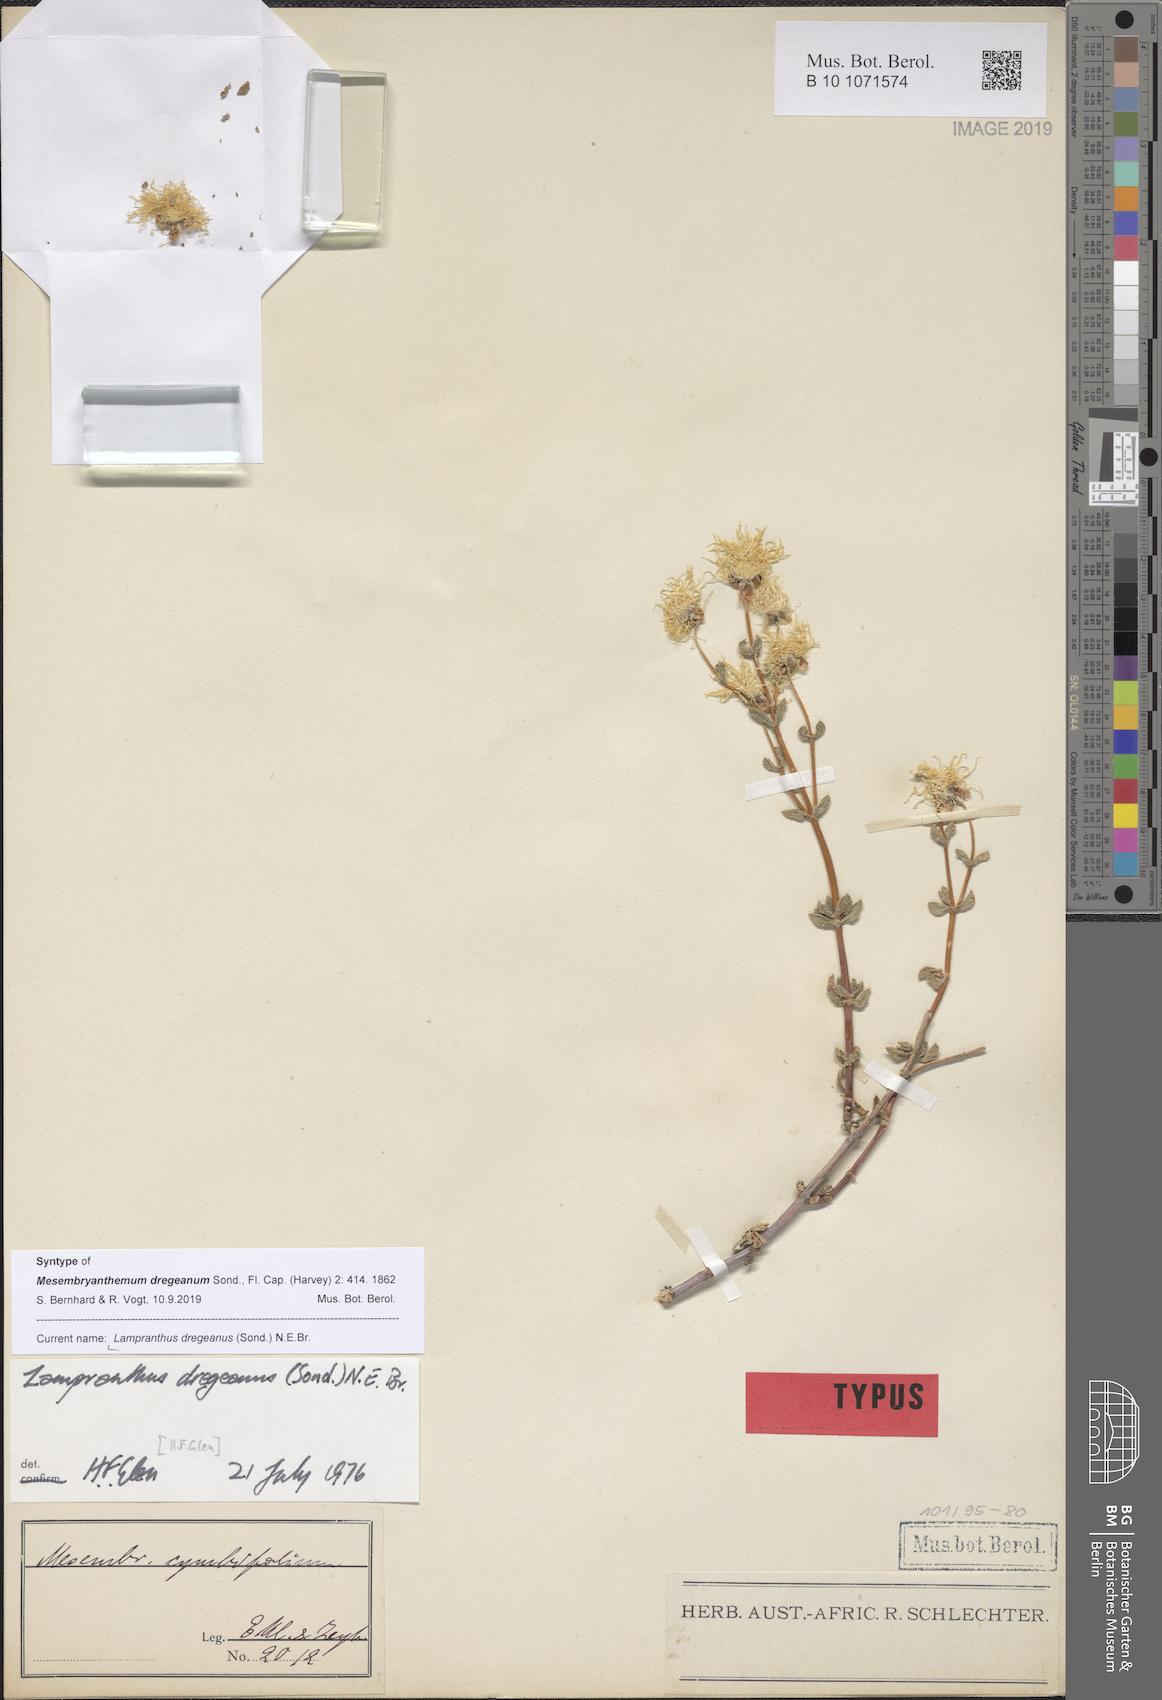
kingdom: Plantae
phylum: Tracheophyta
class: Magnoliopsida
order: Caryophyllales
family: Aizoaceae
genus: Lampranthus
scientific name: Lampranthus dregeanus
